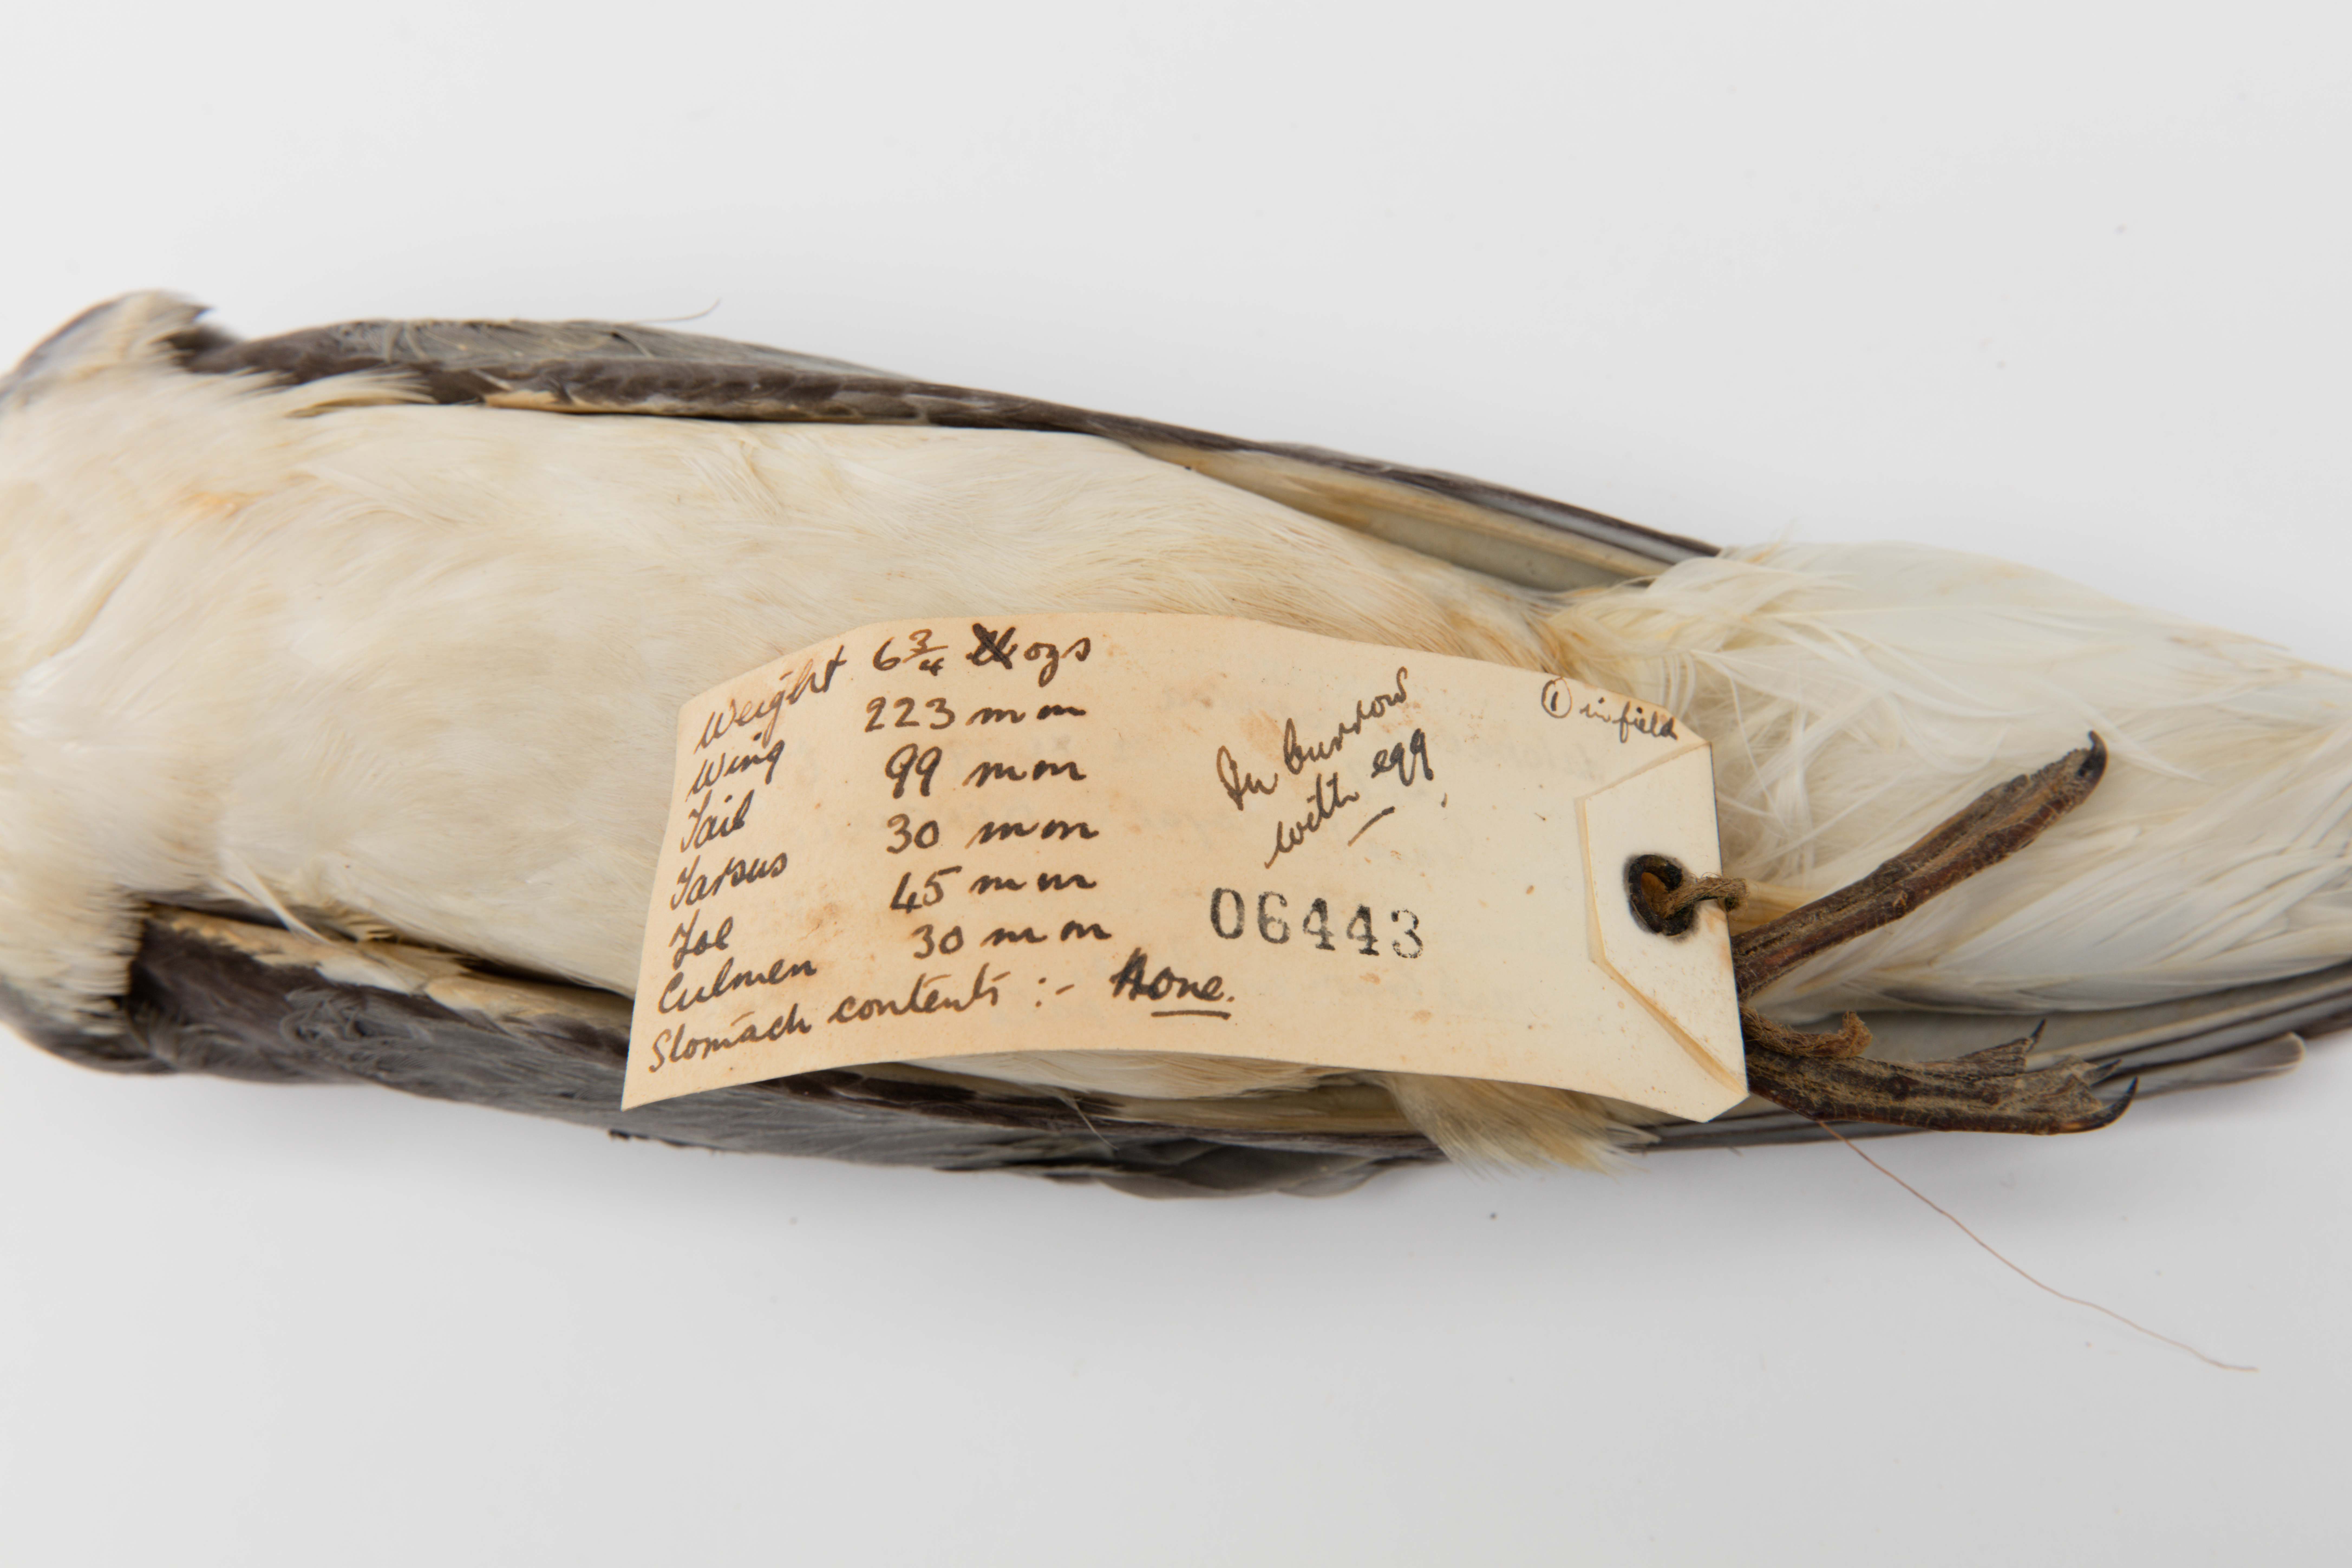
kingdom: Animalia
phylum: Chordata
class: Aves
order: Procellariiformes
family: Procellariidae
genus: Halobaena
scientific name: Halobaena caerulea
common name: Blue petrel
